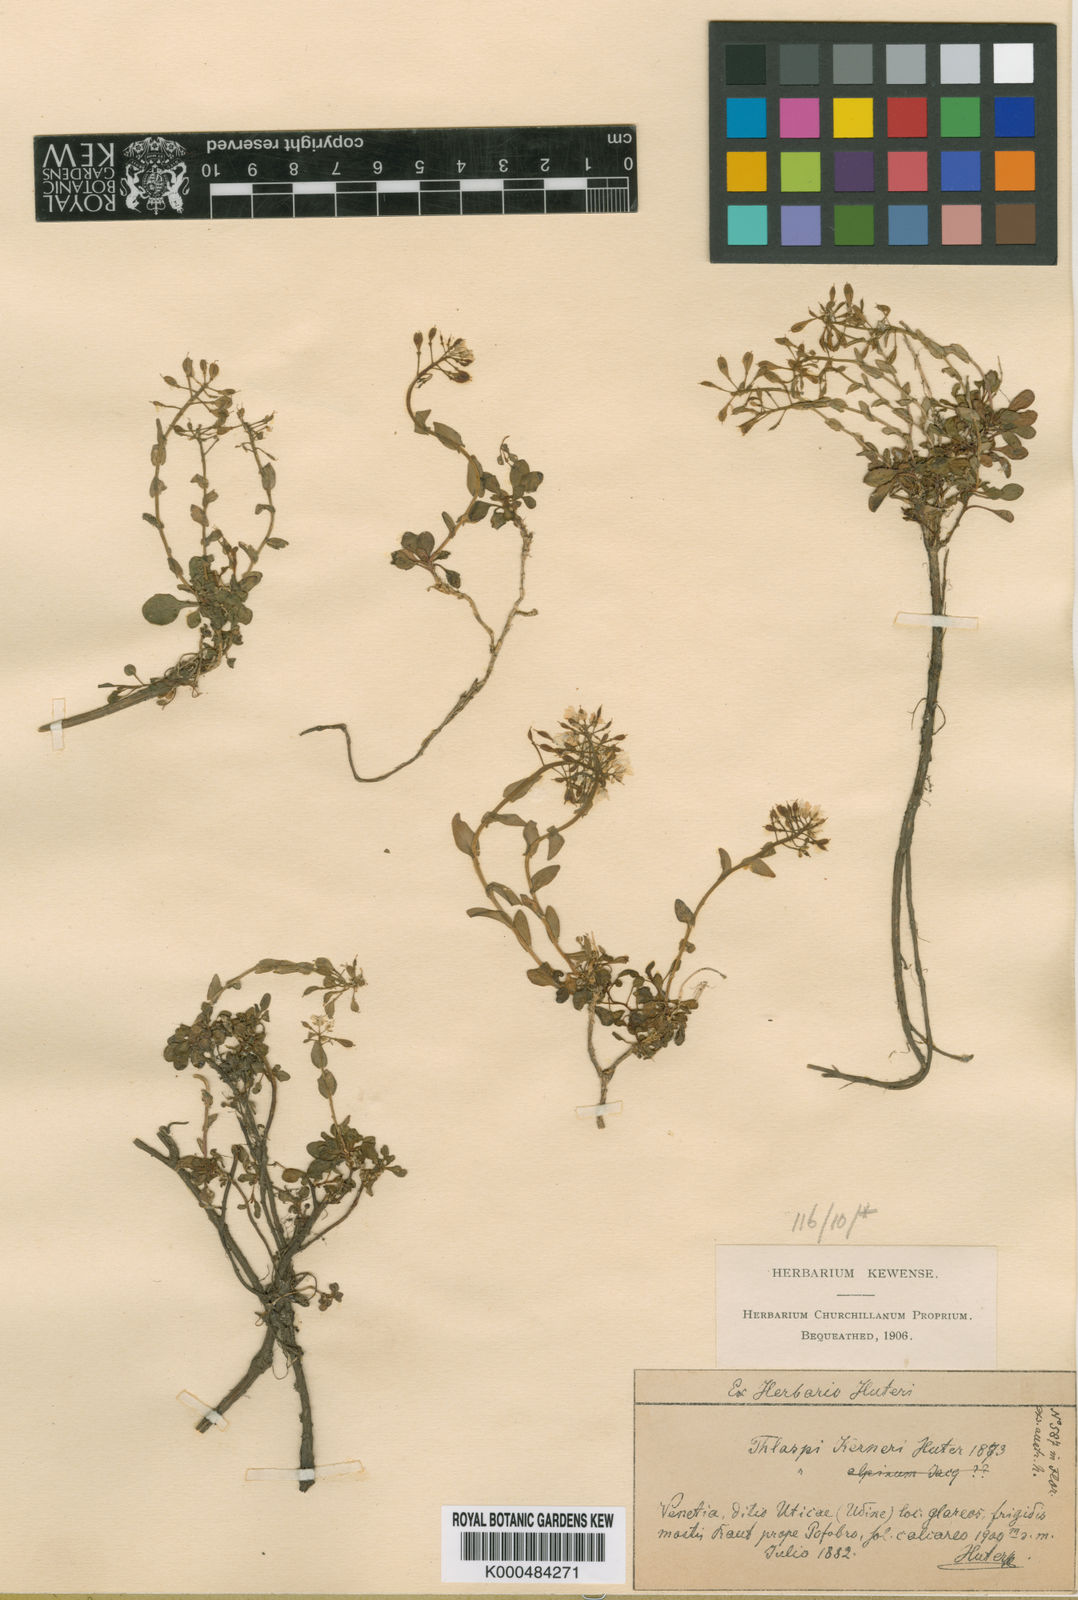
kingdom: Plantae
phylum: Tracheophyta
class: Magnoliopsida
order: Brassicales
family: Brassicaceae
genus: Noccaea
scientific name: Noccaea minima
